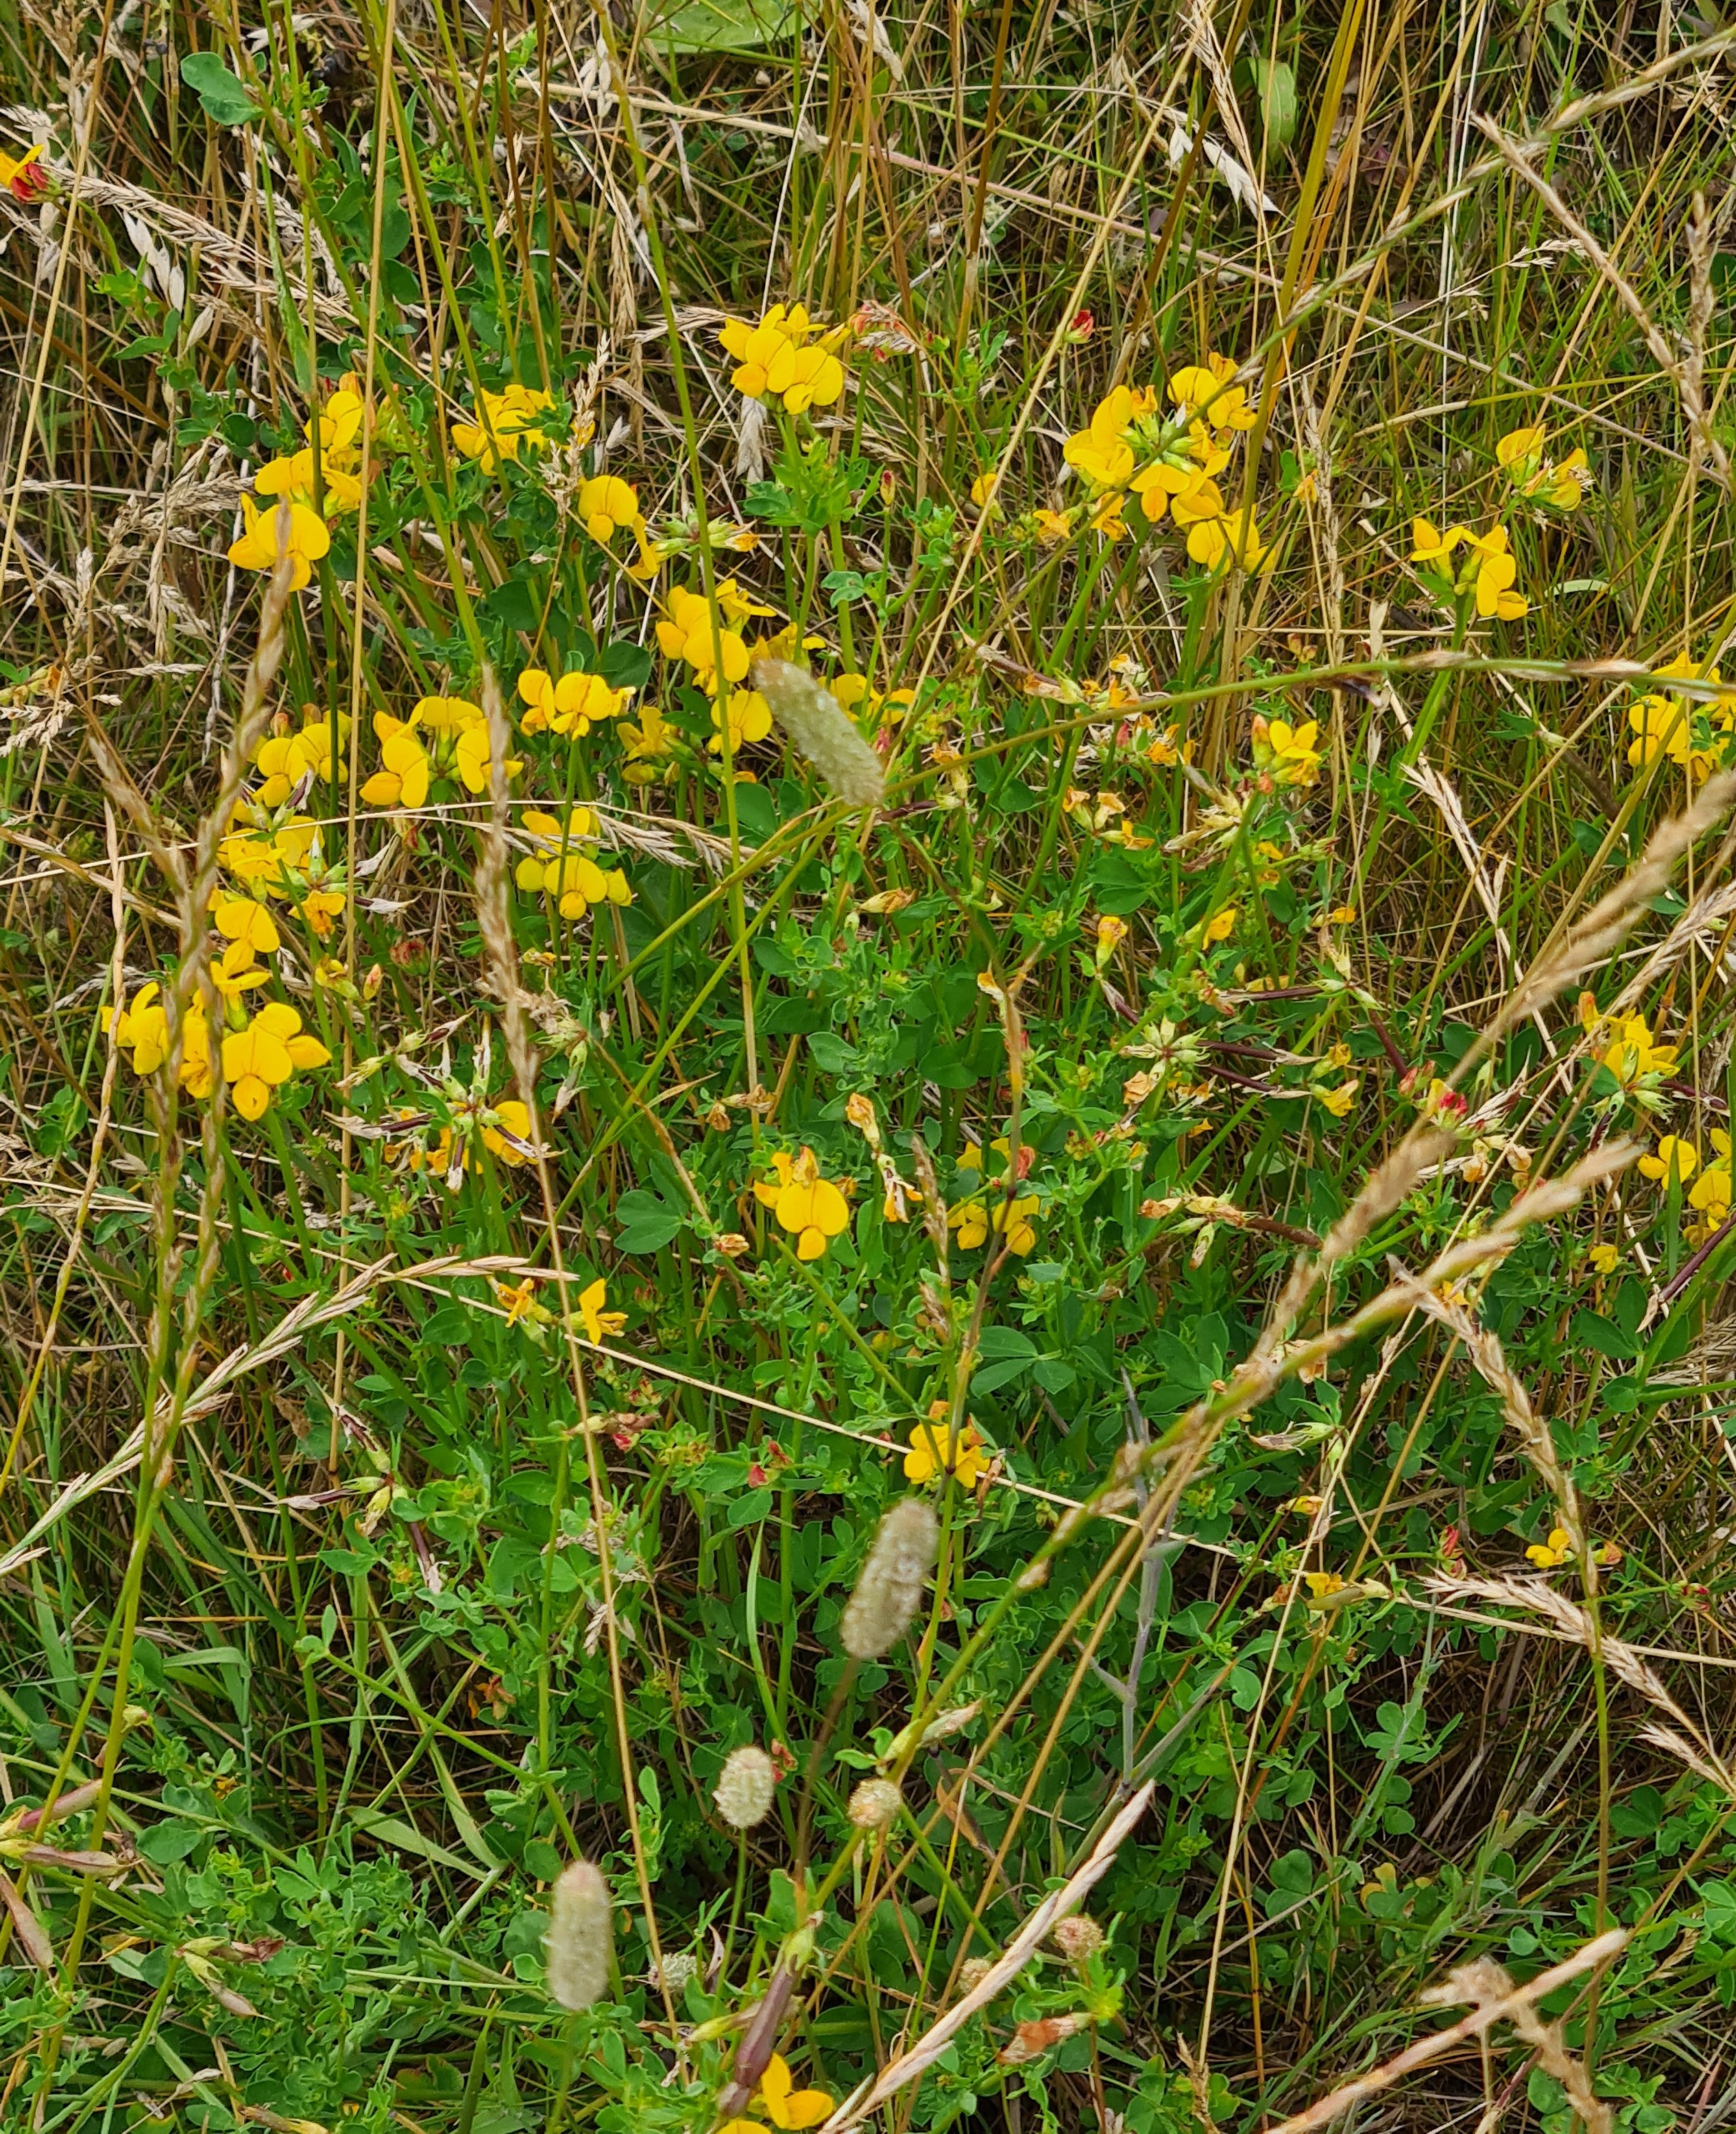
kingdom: Plantae
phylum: Tracheophyta
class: Magnoliopsida
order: Fabales
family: Fabaceae
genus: Lotus
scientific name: Lotus corniculatus
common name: Almindelig kællingetand
